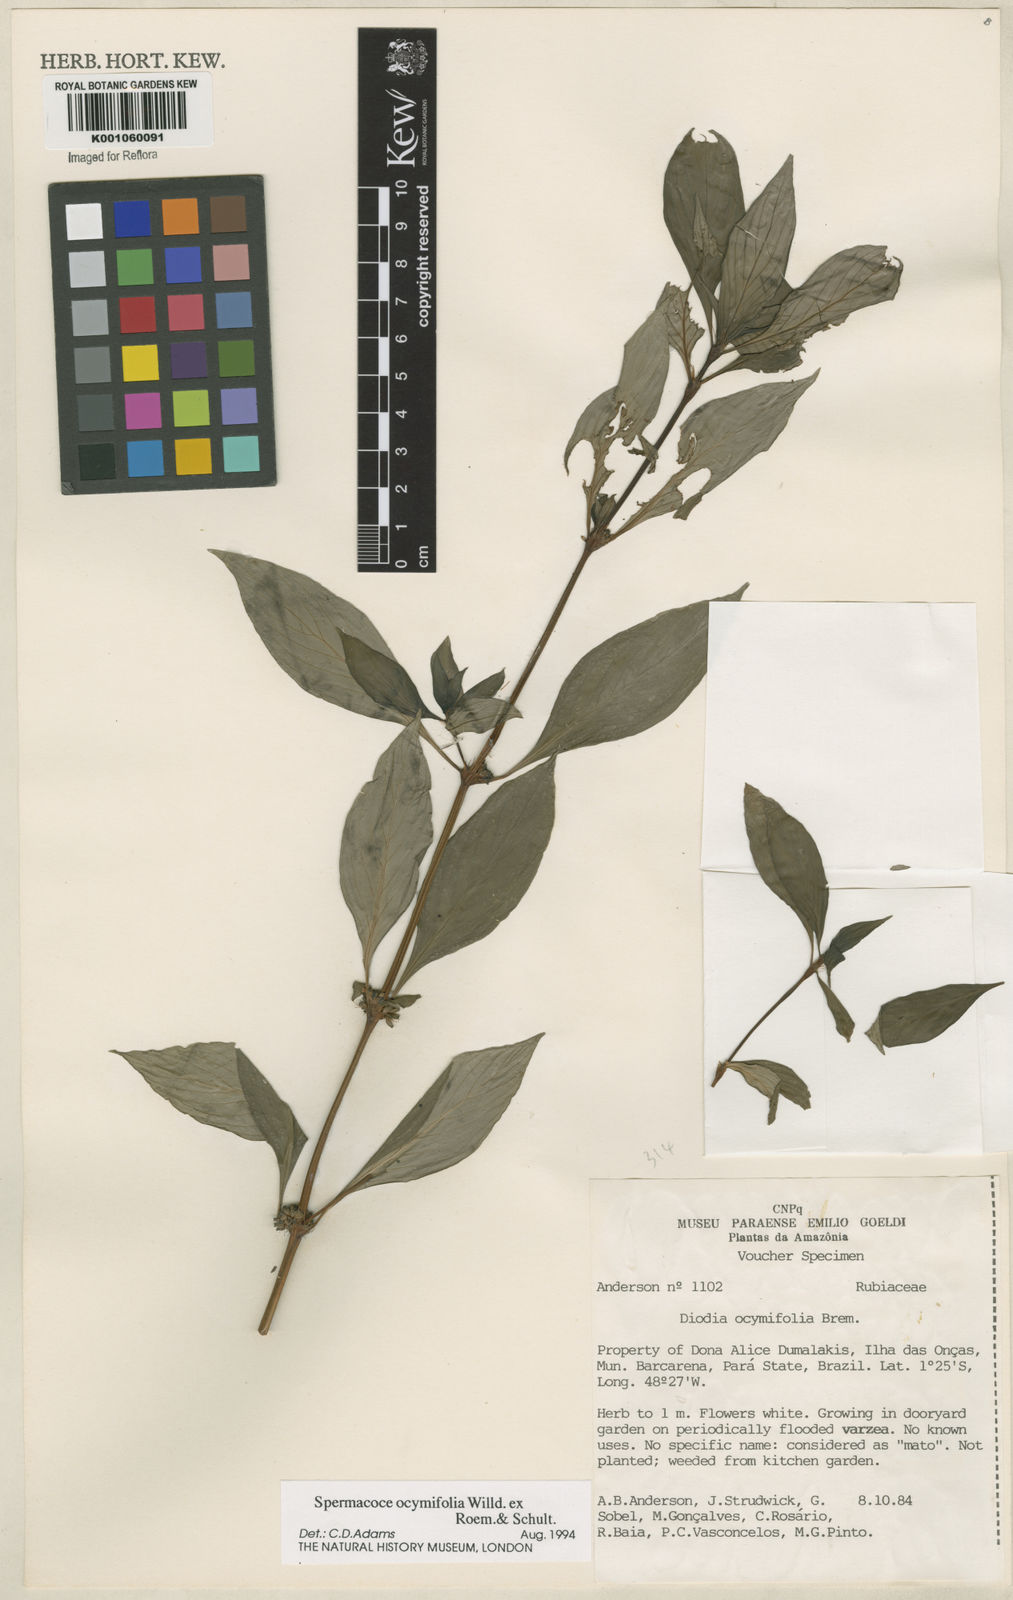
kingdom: Plantae
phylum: Tracheophyta
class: Magnoliopsida
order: Gentianales
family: Rubiaceae
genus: Spermacoce
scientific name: Spermacoce
